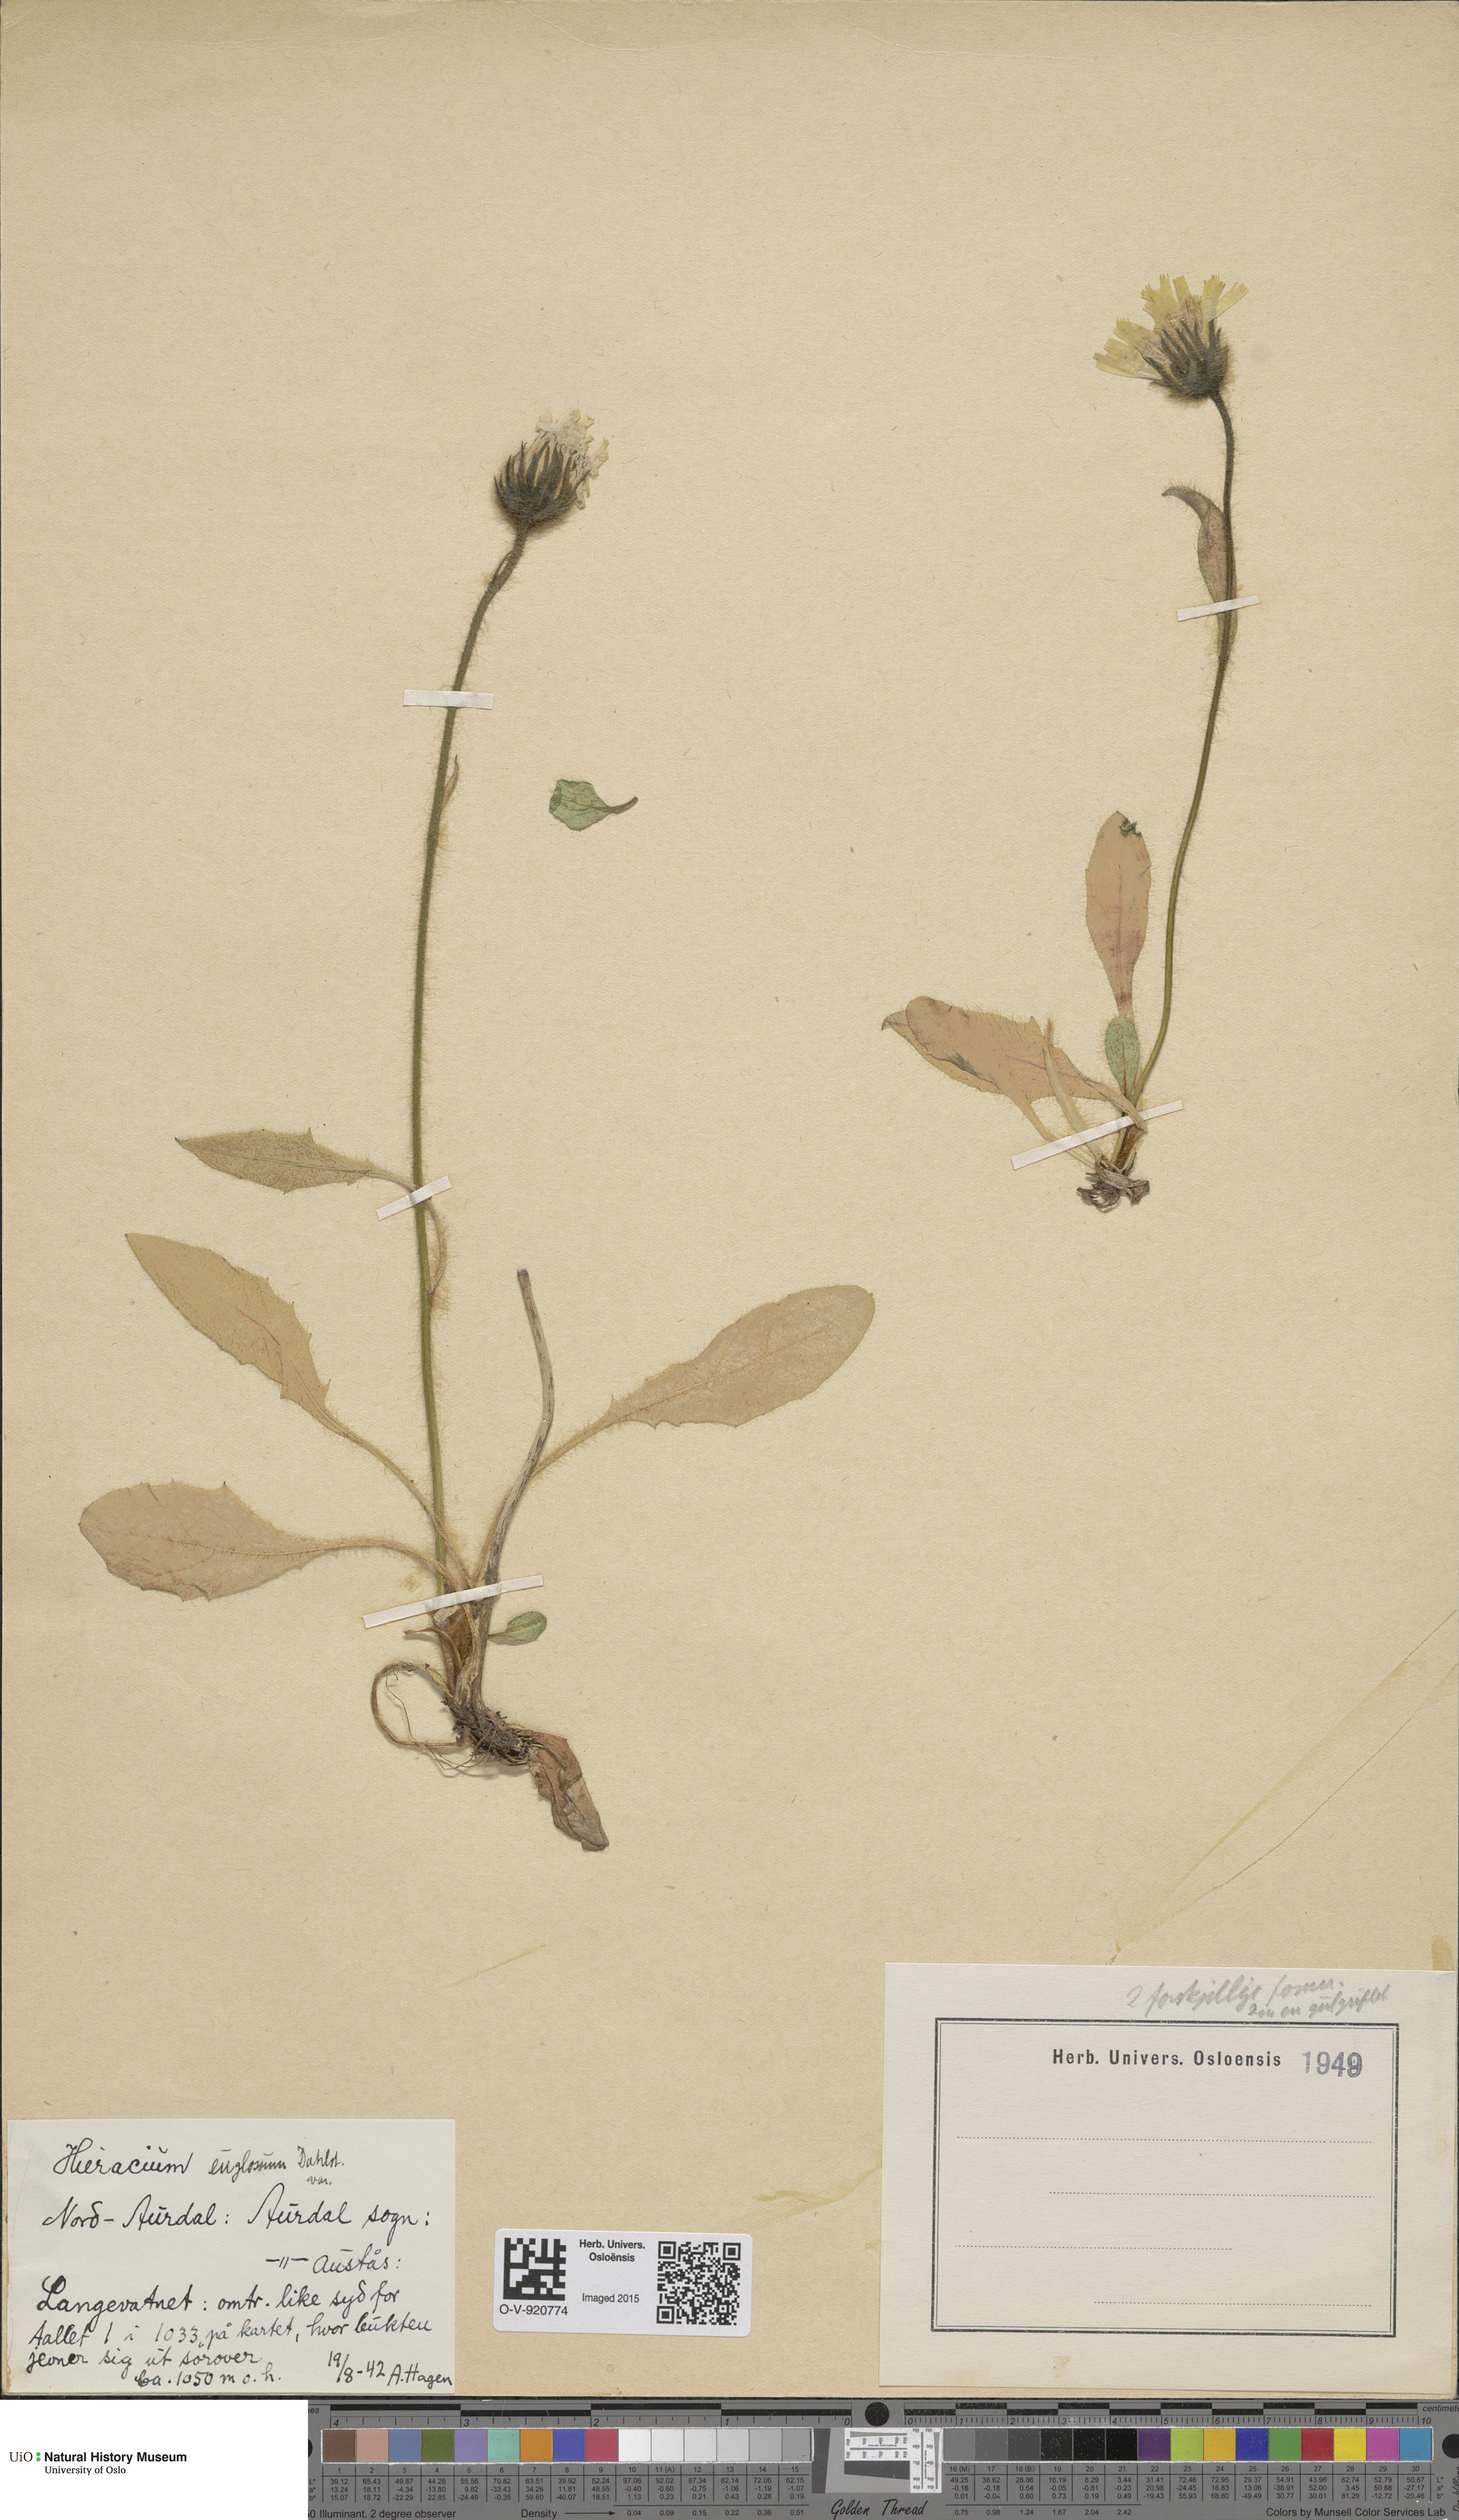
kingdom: Plantae
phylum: Tracheophyta
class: Magnoliopsida
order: Asterales
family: Asteraceae
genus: Hieracium
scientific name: Hieracium
